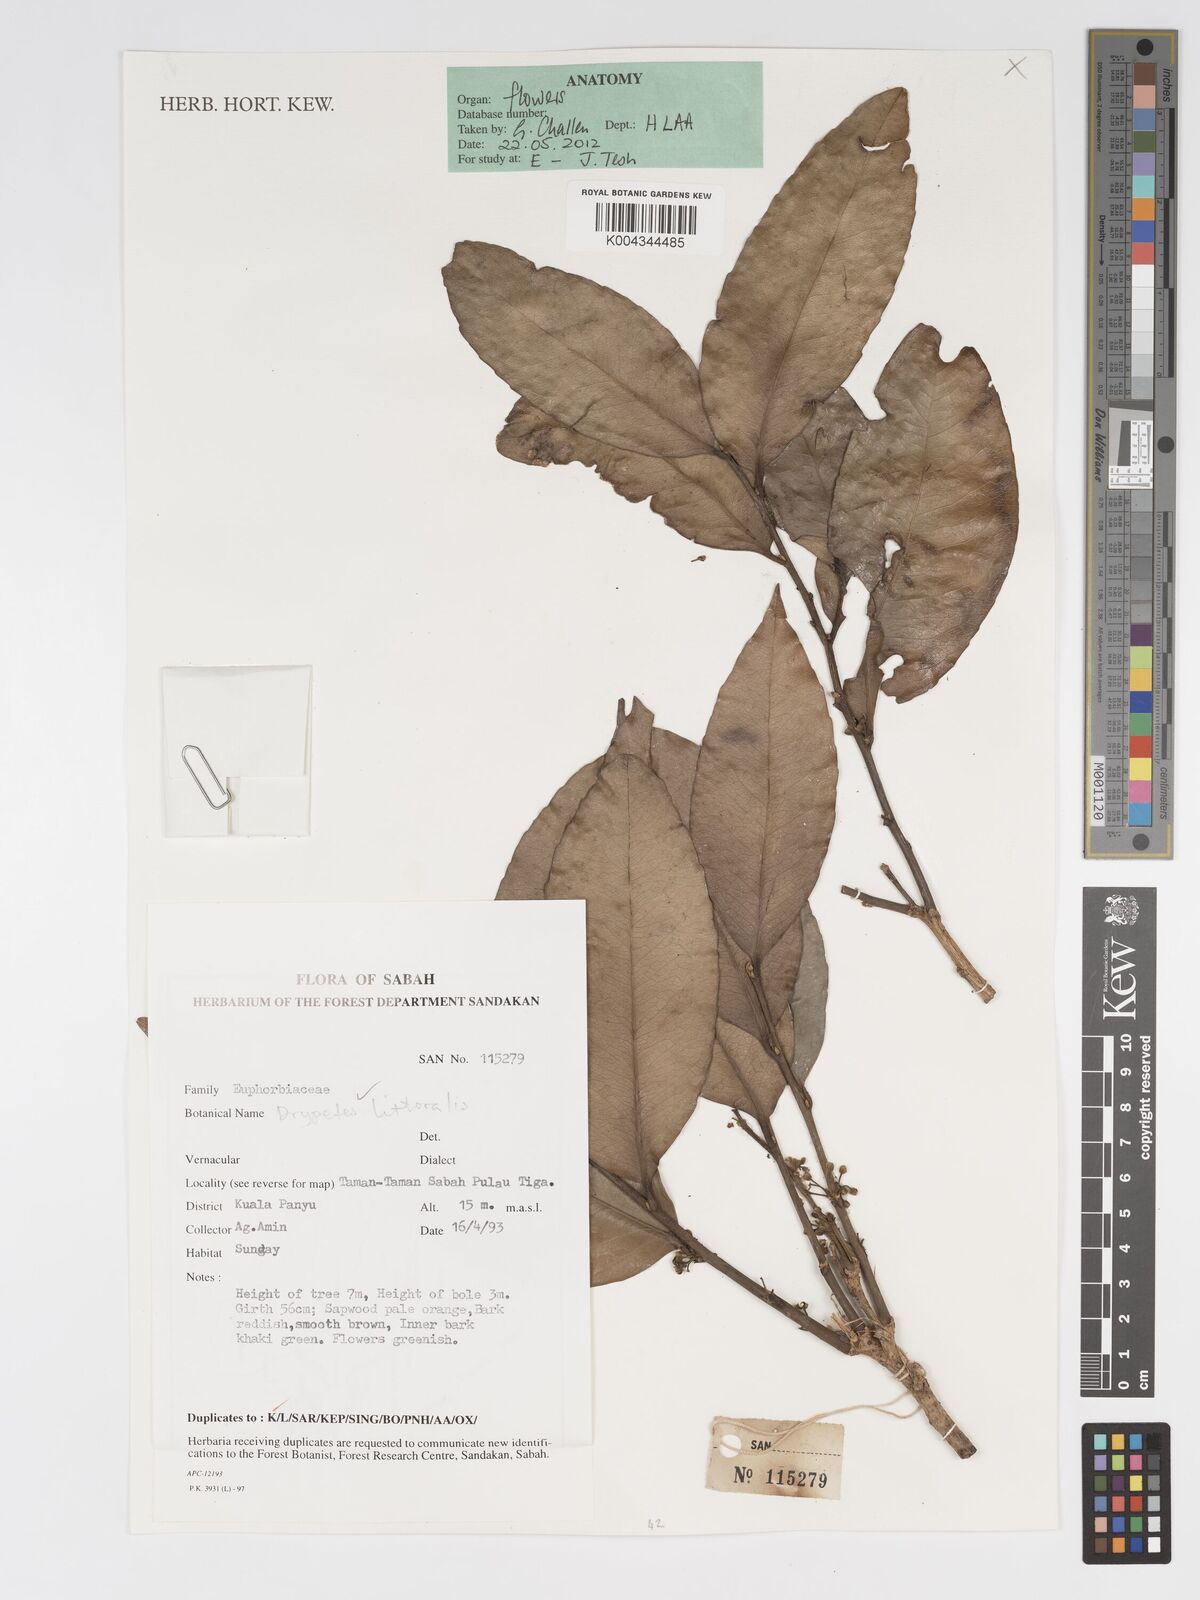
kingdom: Plantae
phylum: Tracheophyta
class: Magnoliopsida
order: Malpighiales
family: Putranjivaceae
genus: Drypetes
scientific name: Drypetes littoralis
